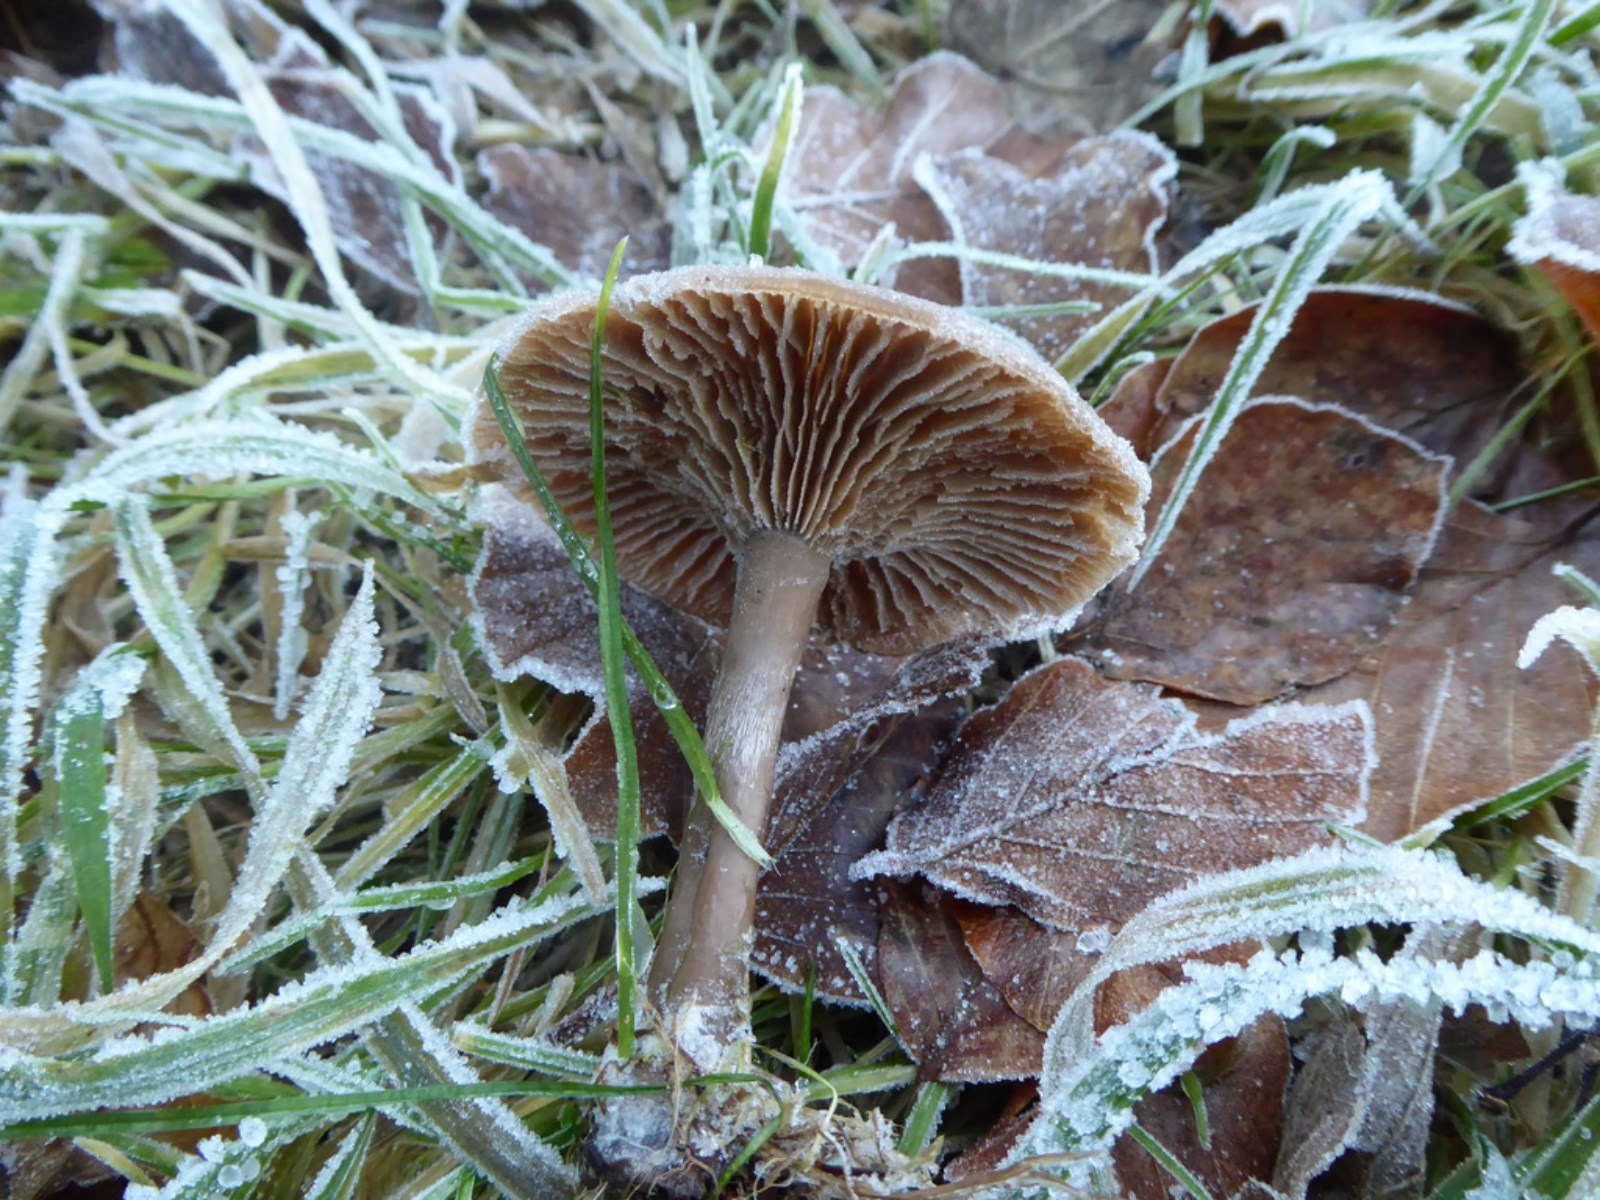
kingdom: Fungi
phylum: Basidiomycota
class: Agaricomycetes
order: Agaricales
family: Pseudoclitocybaceae
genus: Pseudoclitocybe
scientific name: Pseudoclitocybe cyathiformis
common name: almindelig bægertragthat
